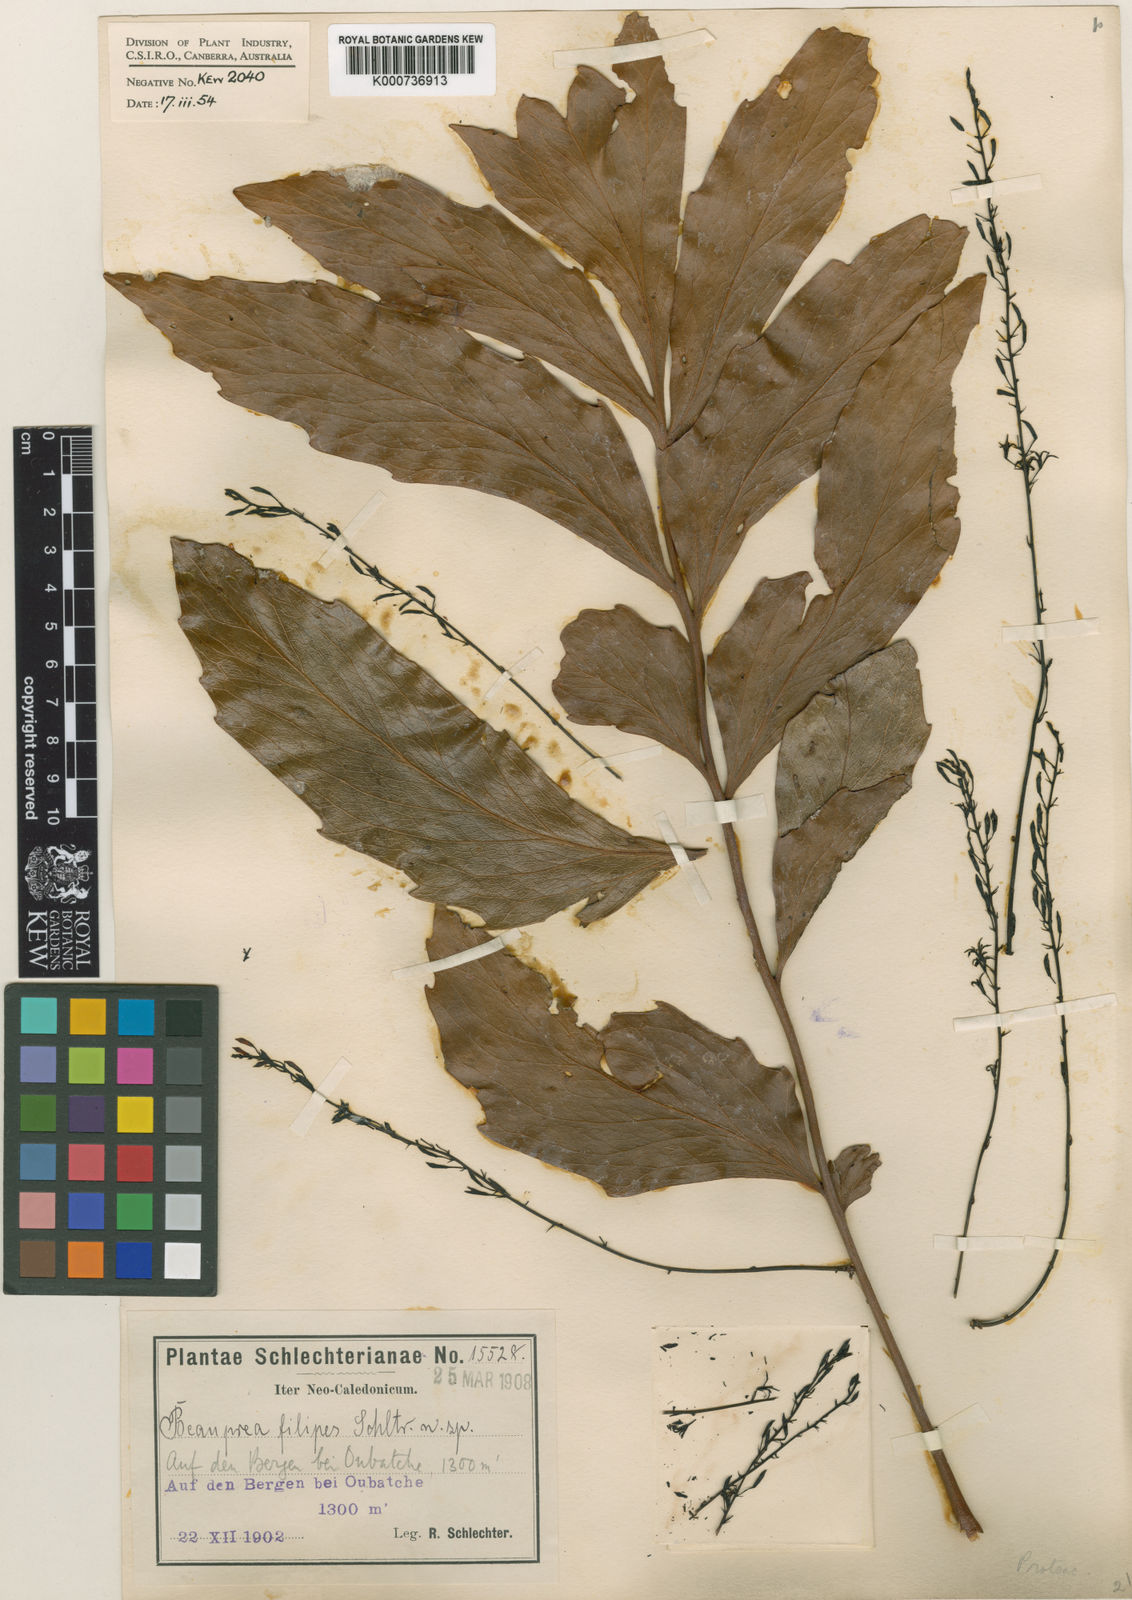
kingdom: Plantae
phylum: Tracheophyta
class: Magnoliopsida
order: Proteales
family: Proteaceae
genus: Beauprea
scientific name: Beauprea filipes
